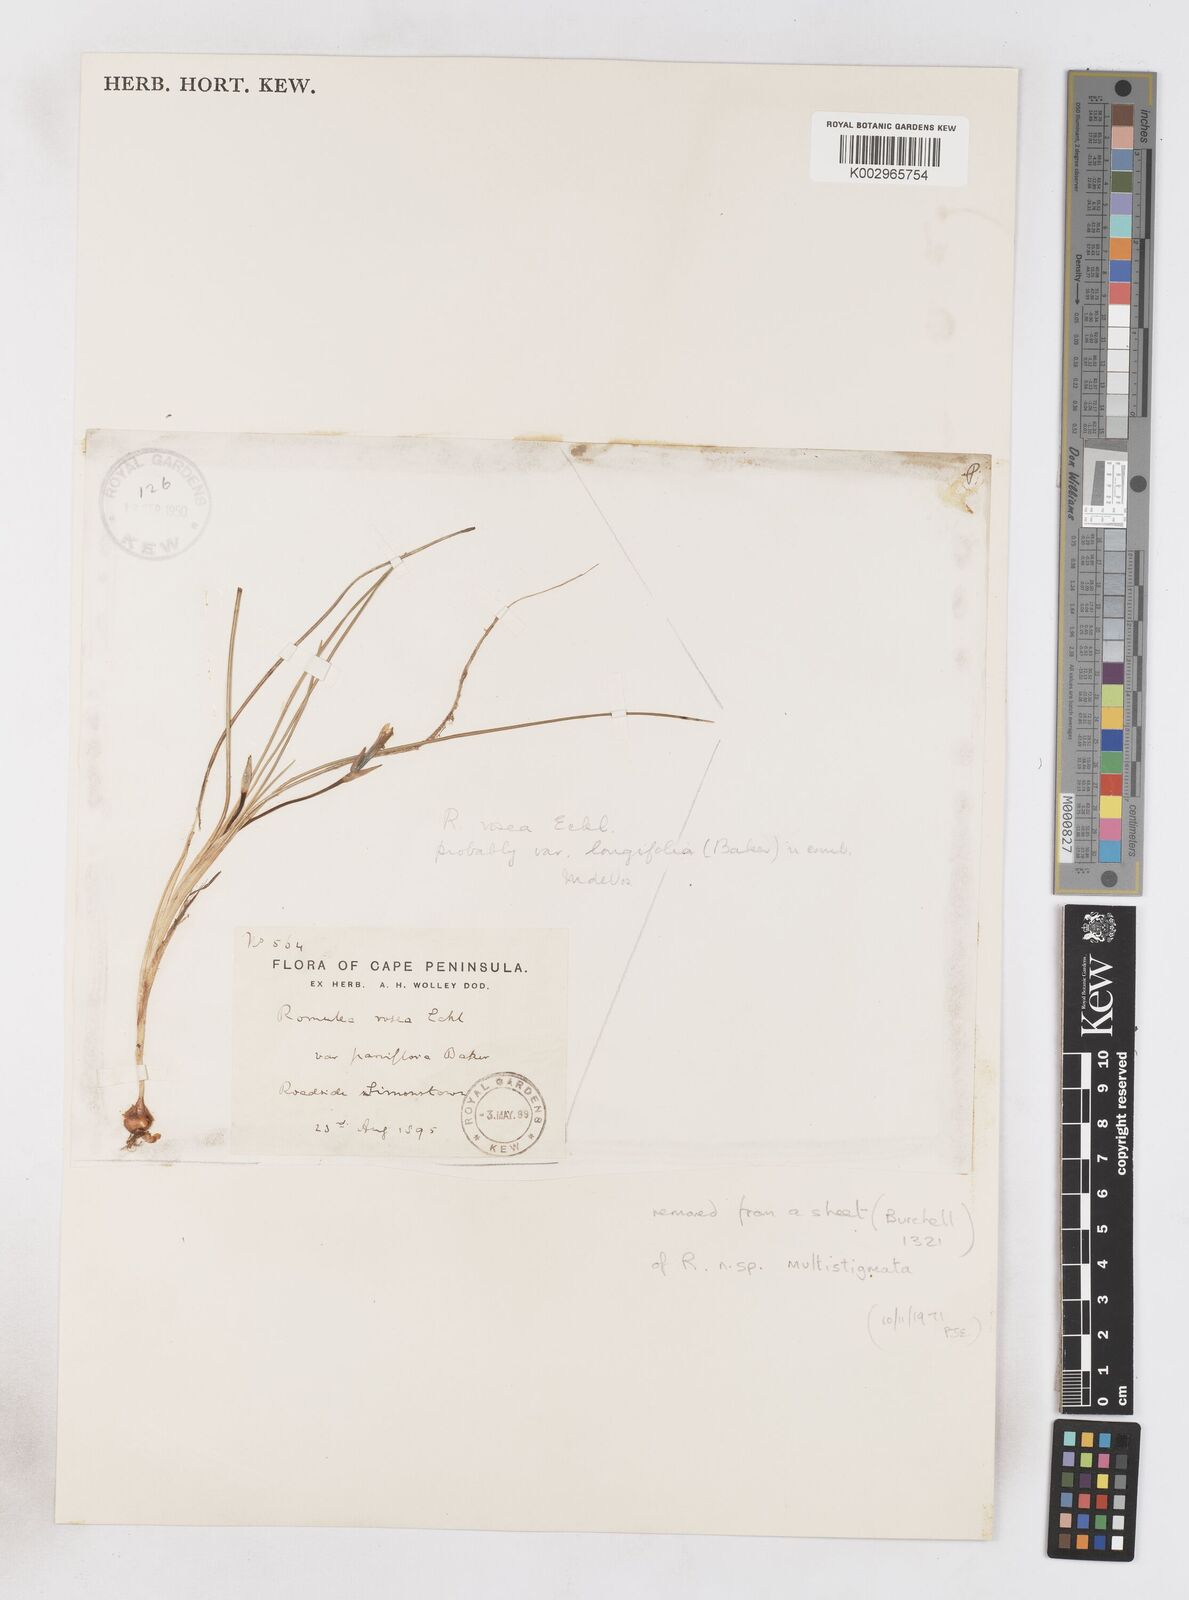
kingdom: Plantae
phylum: Tracheophyta
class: Liliopsida
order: Asparagales
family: Iridaceae
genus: Romulea
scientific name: Romulea rosea
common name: Oniongrass
